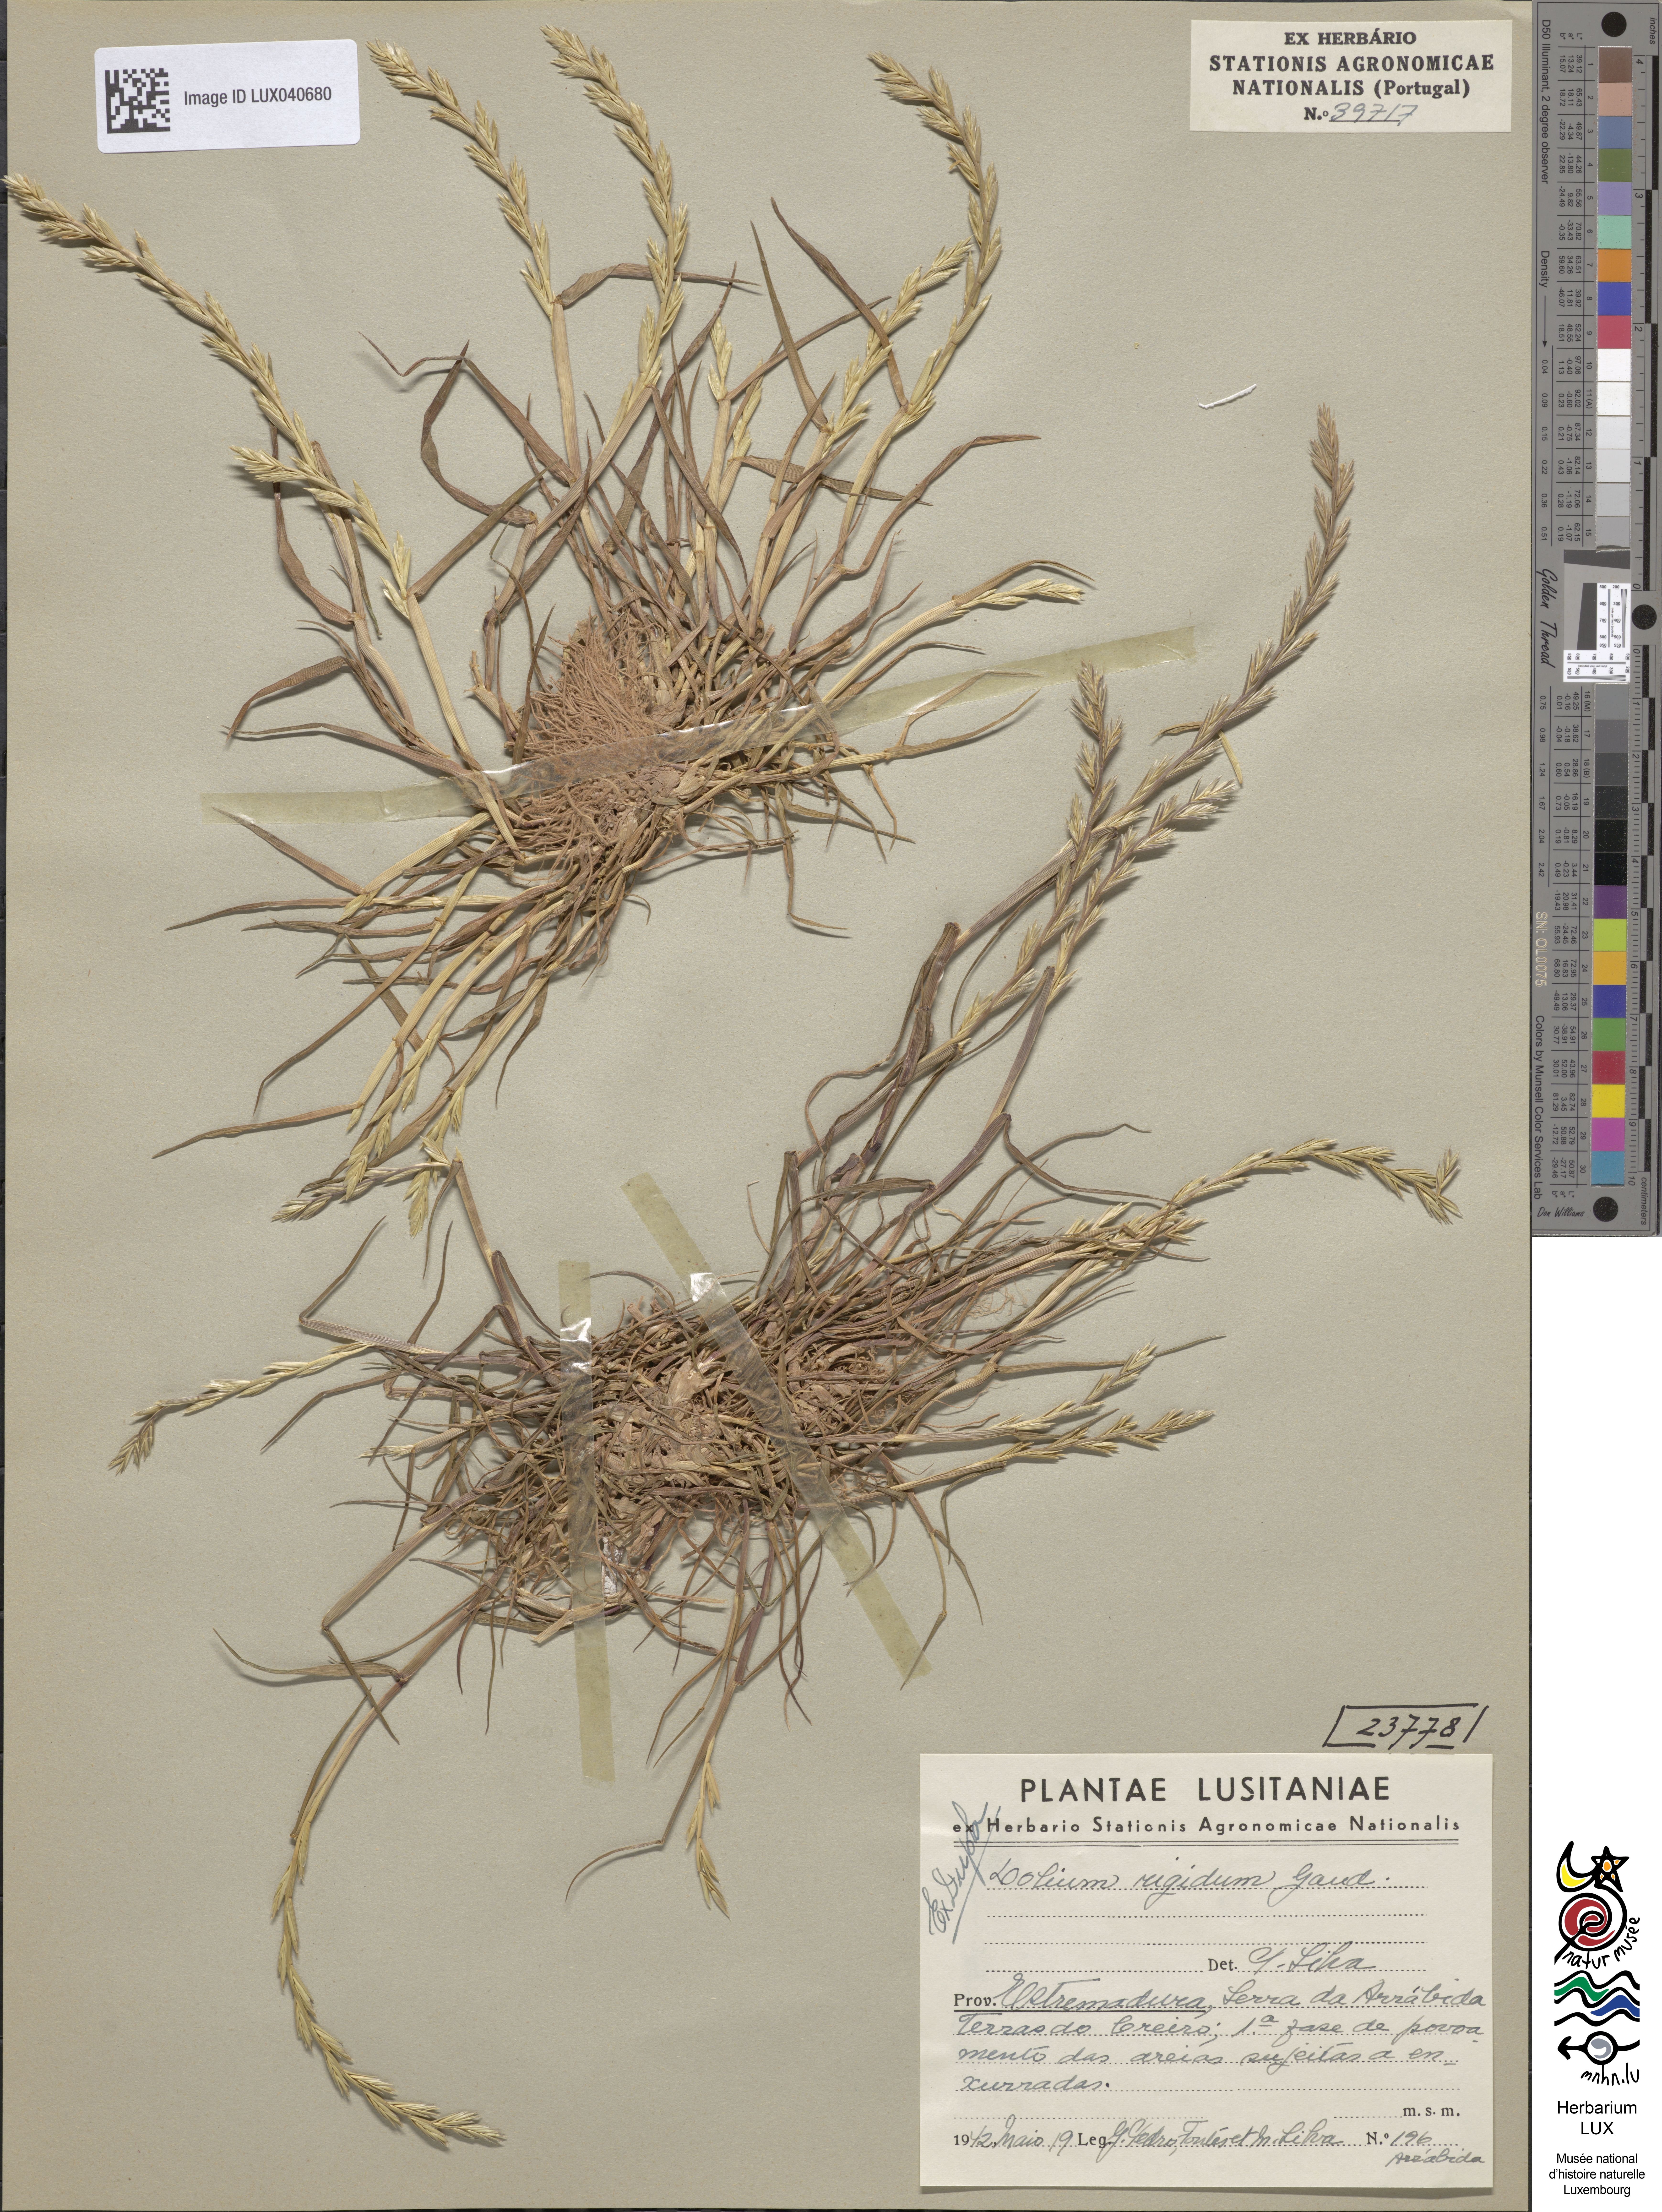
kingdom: Plantae
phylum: Tracheophyta
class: Liliopsida
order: Poales
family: Poaceae
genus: Lolium
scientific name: Lolium rigidum
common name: Wimmera ryegrass
